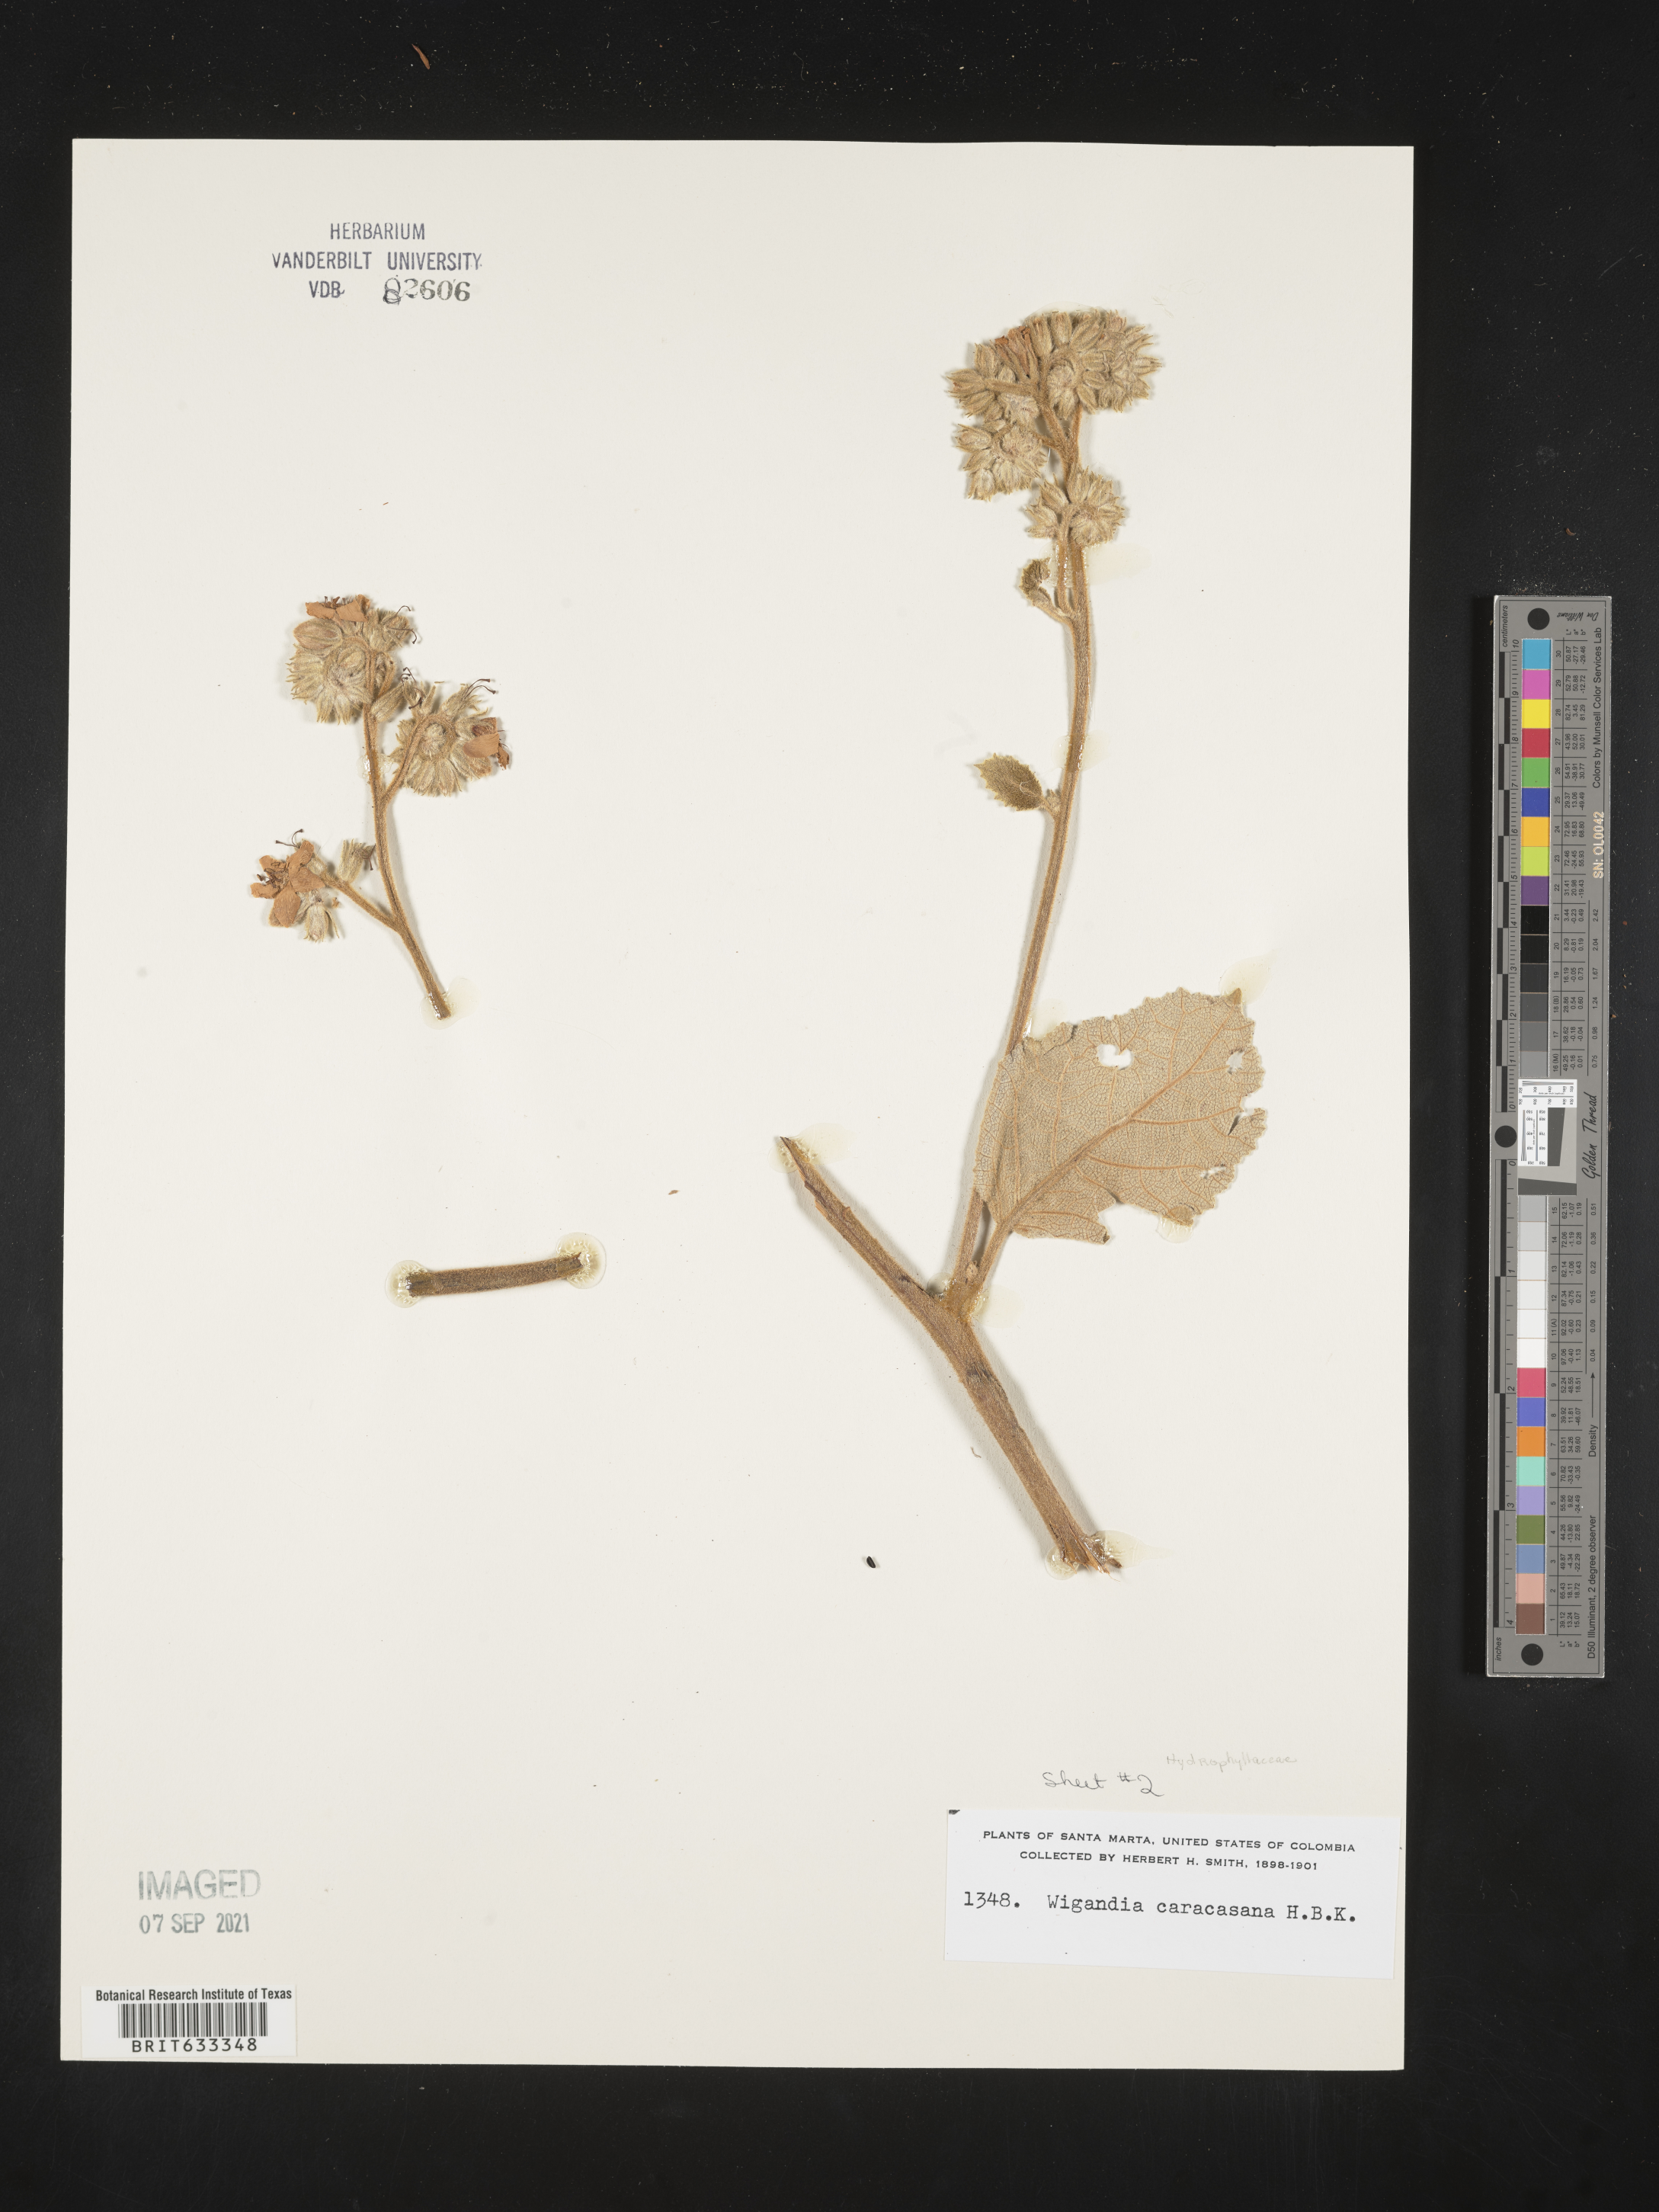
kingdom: Plantae
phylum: Tracheophyta
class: Magnoliopsida
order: Boraginales
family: Namaceae
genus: Wigandia
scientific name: Wigandia urens
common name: Caracus wigandia
